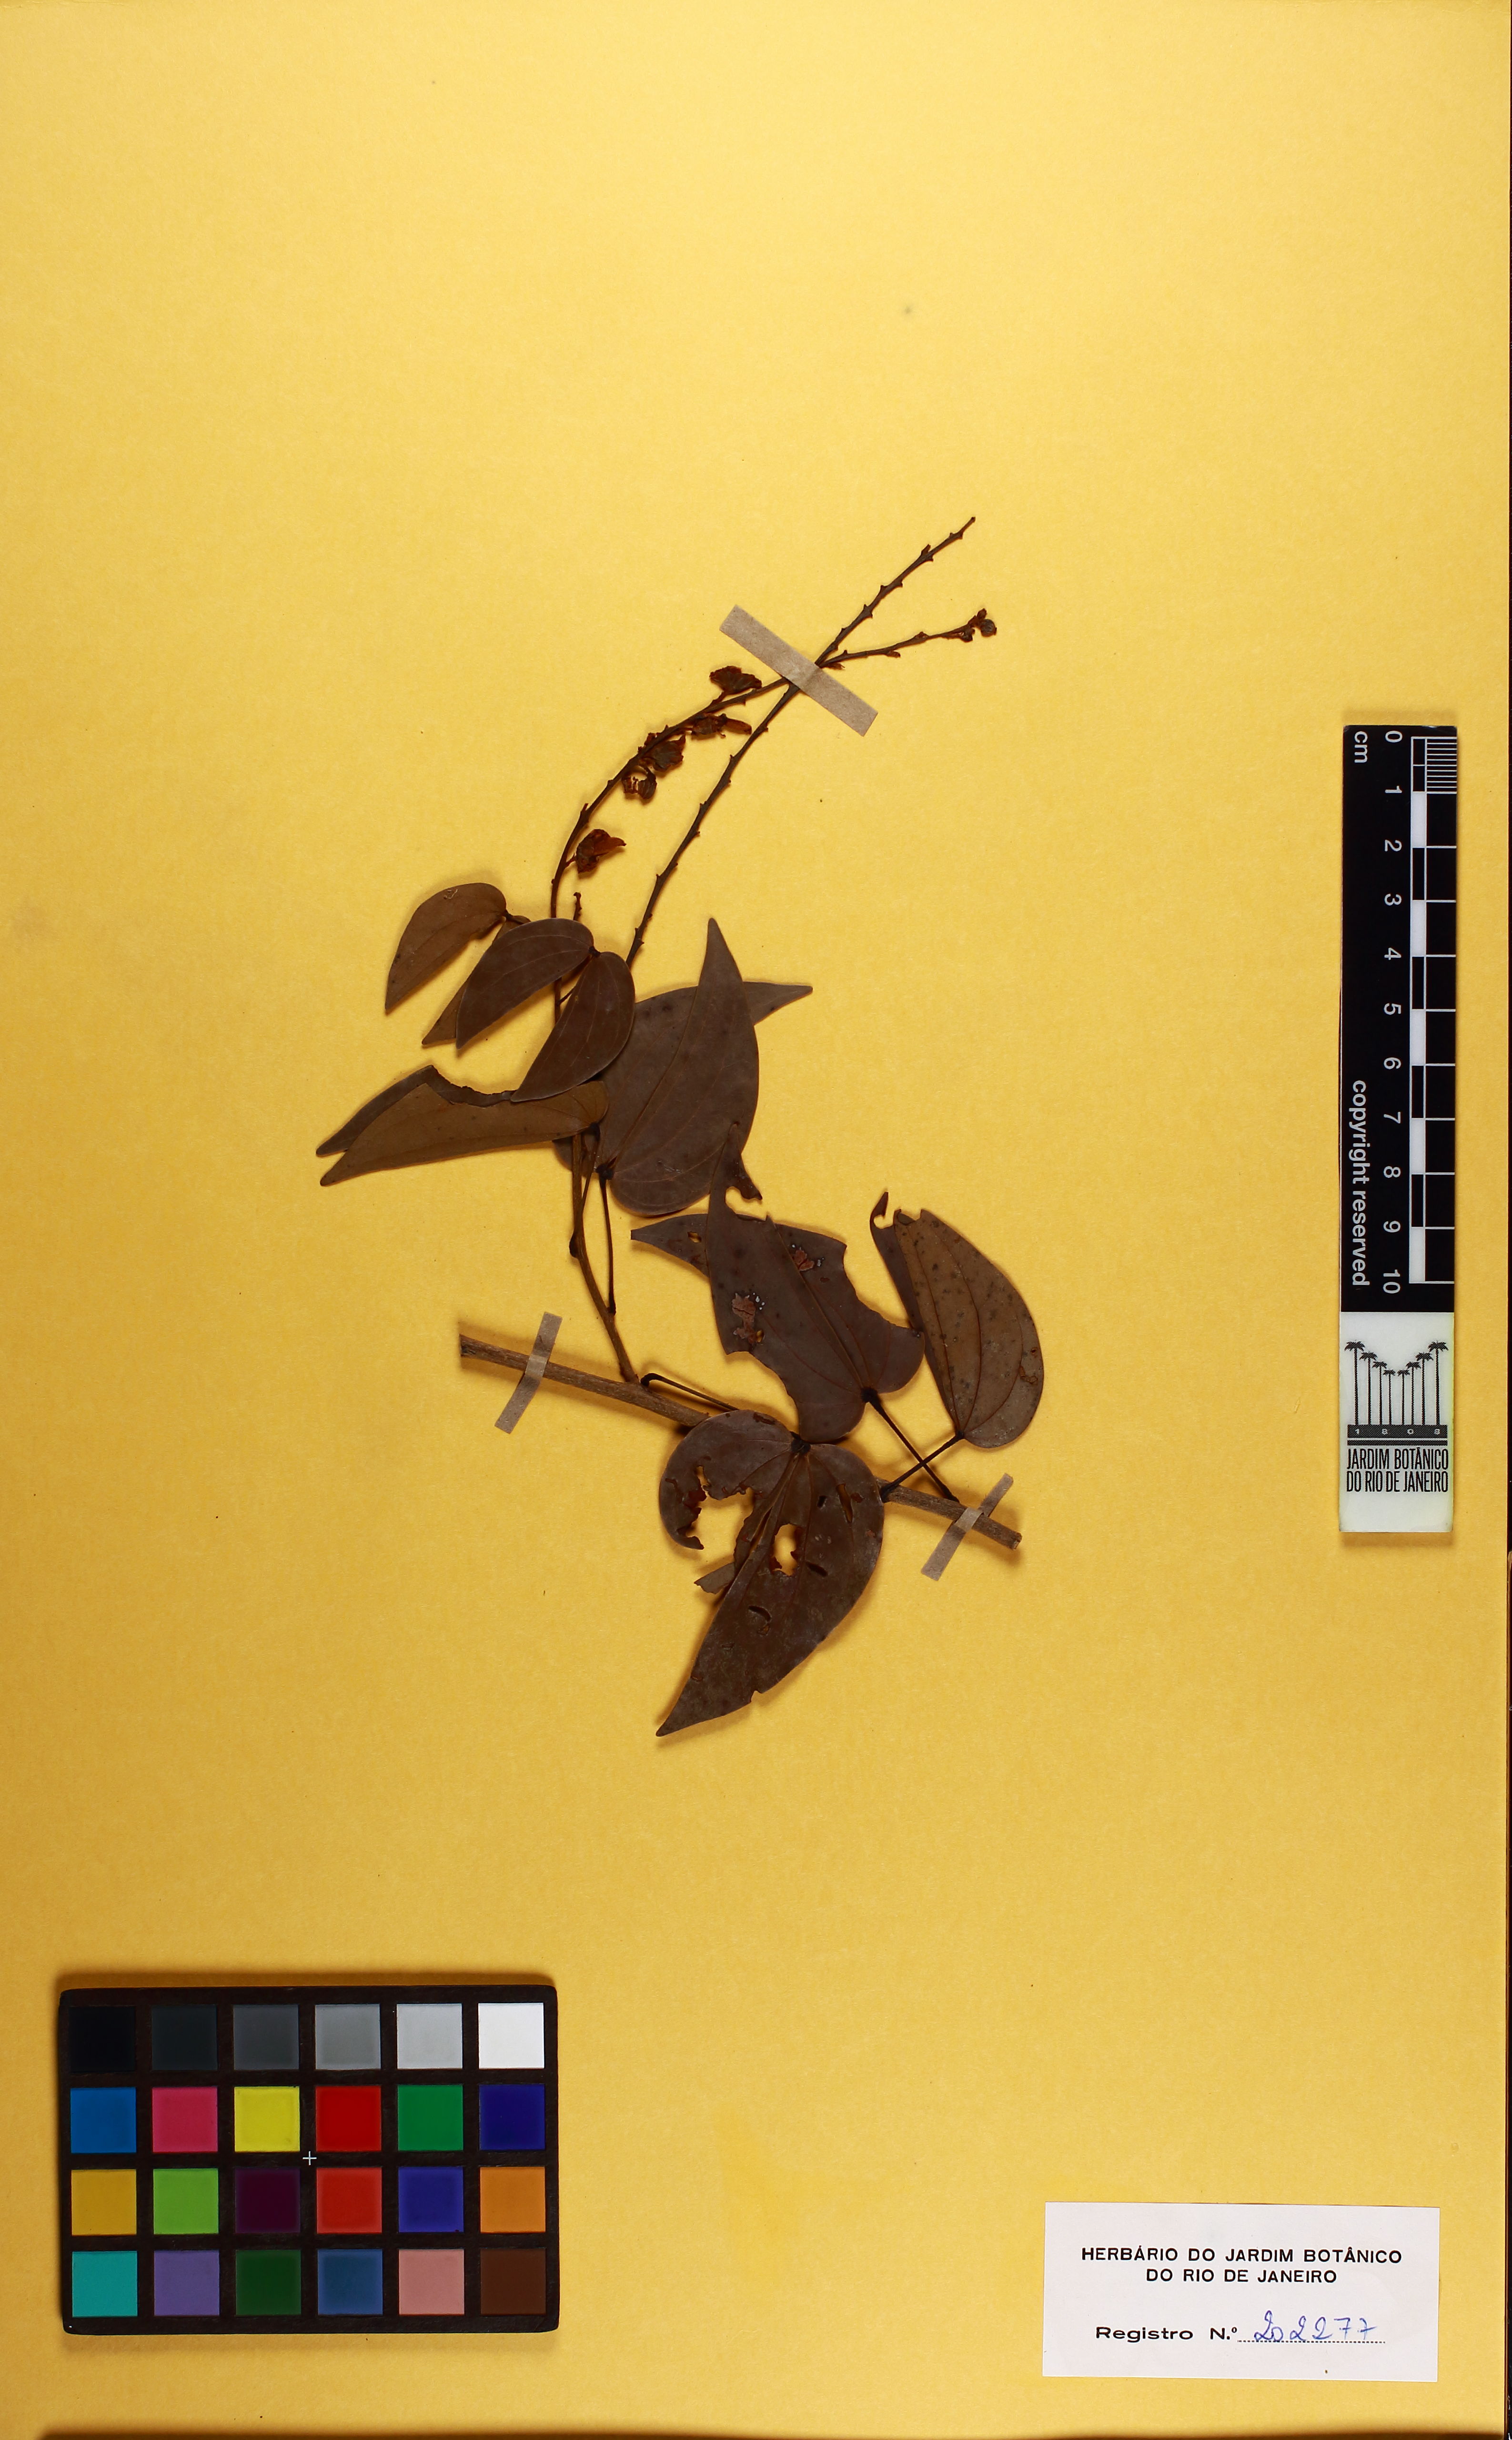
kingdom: Plantae
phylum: Tracheophyta
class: Magnoliopsida
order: Fabales
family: Fabaceae
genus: Schnella
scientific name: Schnella splendens
